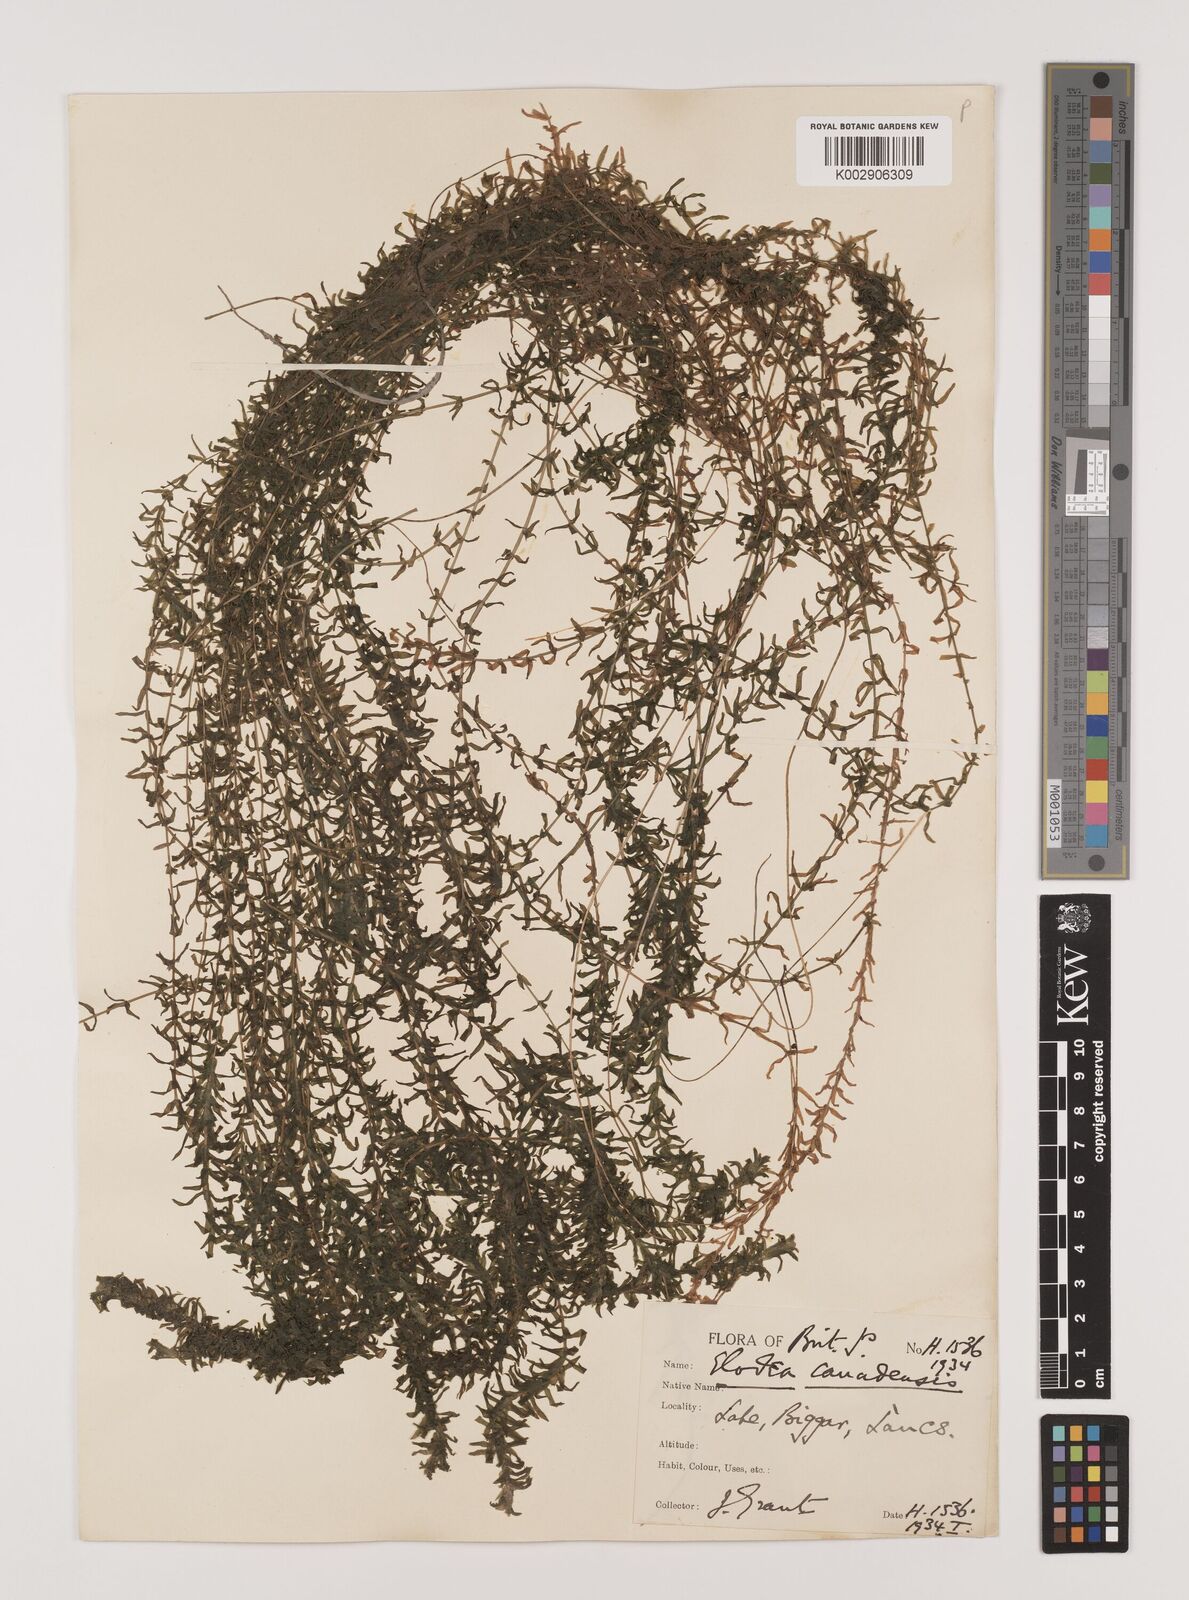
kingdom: Plantae
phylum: Tracheophyta
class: Liliopsida
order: Alismatales
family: Hydrocharitaceae
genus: Elodea
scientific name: Elodea canadensis
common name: Canadian waterweed
